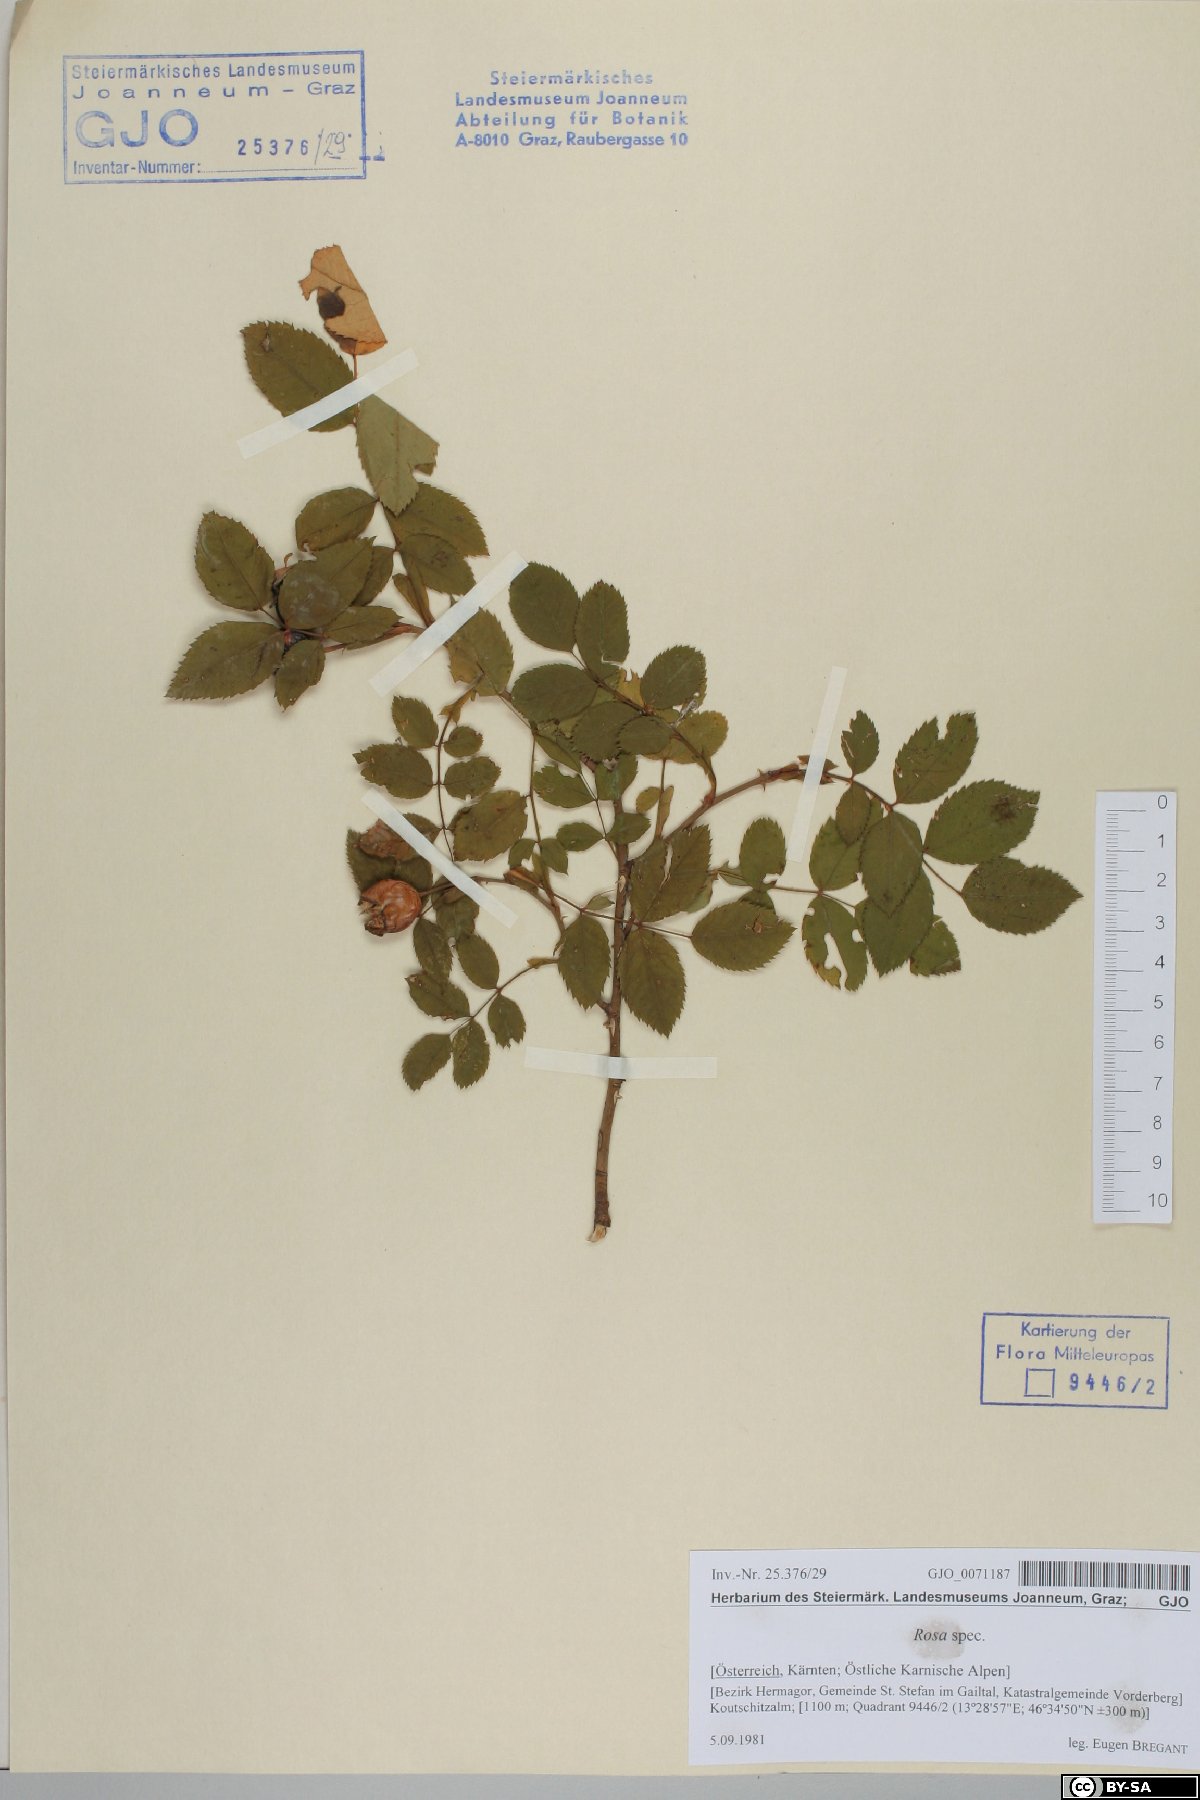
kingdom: Plantae
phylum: Tracheophyta
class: Magnoliopsida
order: Rosales
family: Rosaceae
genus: Rosa
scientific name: Rosa
